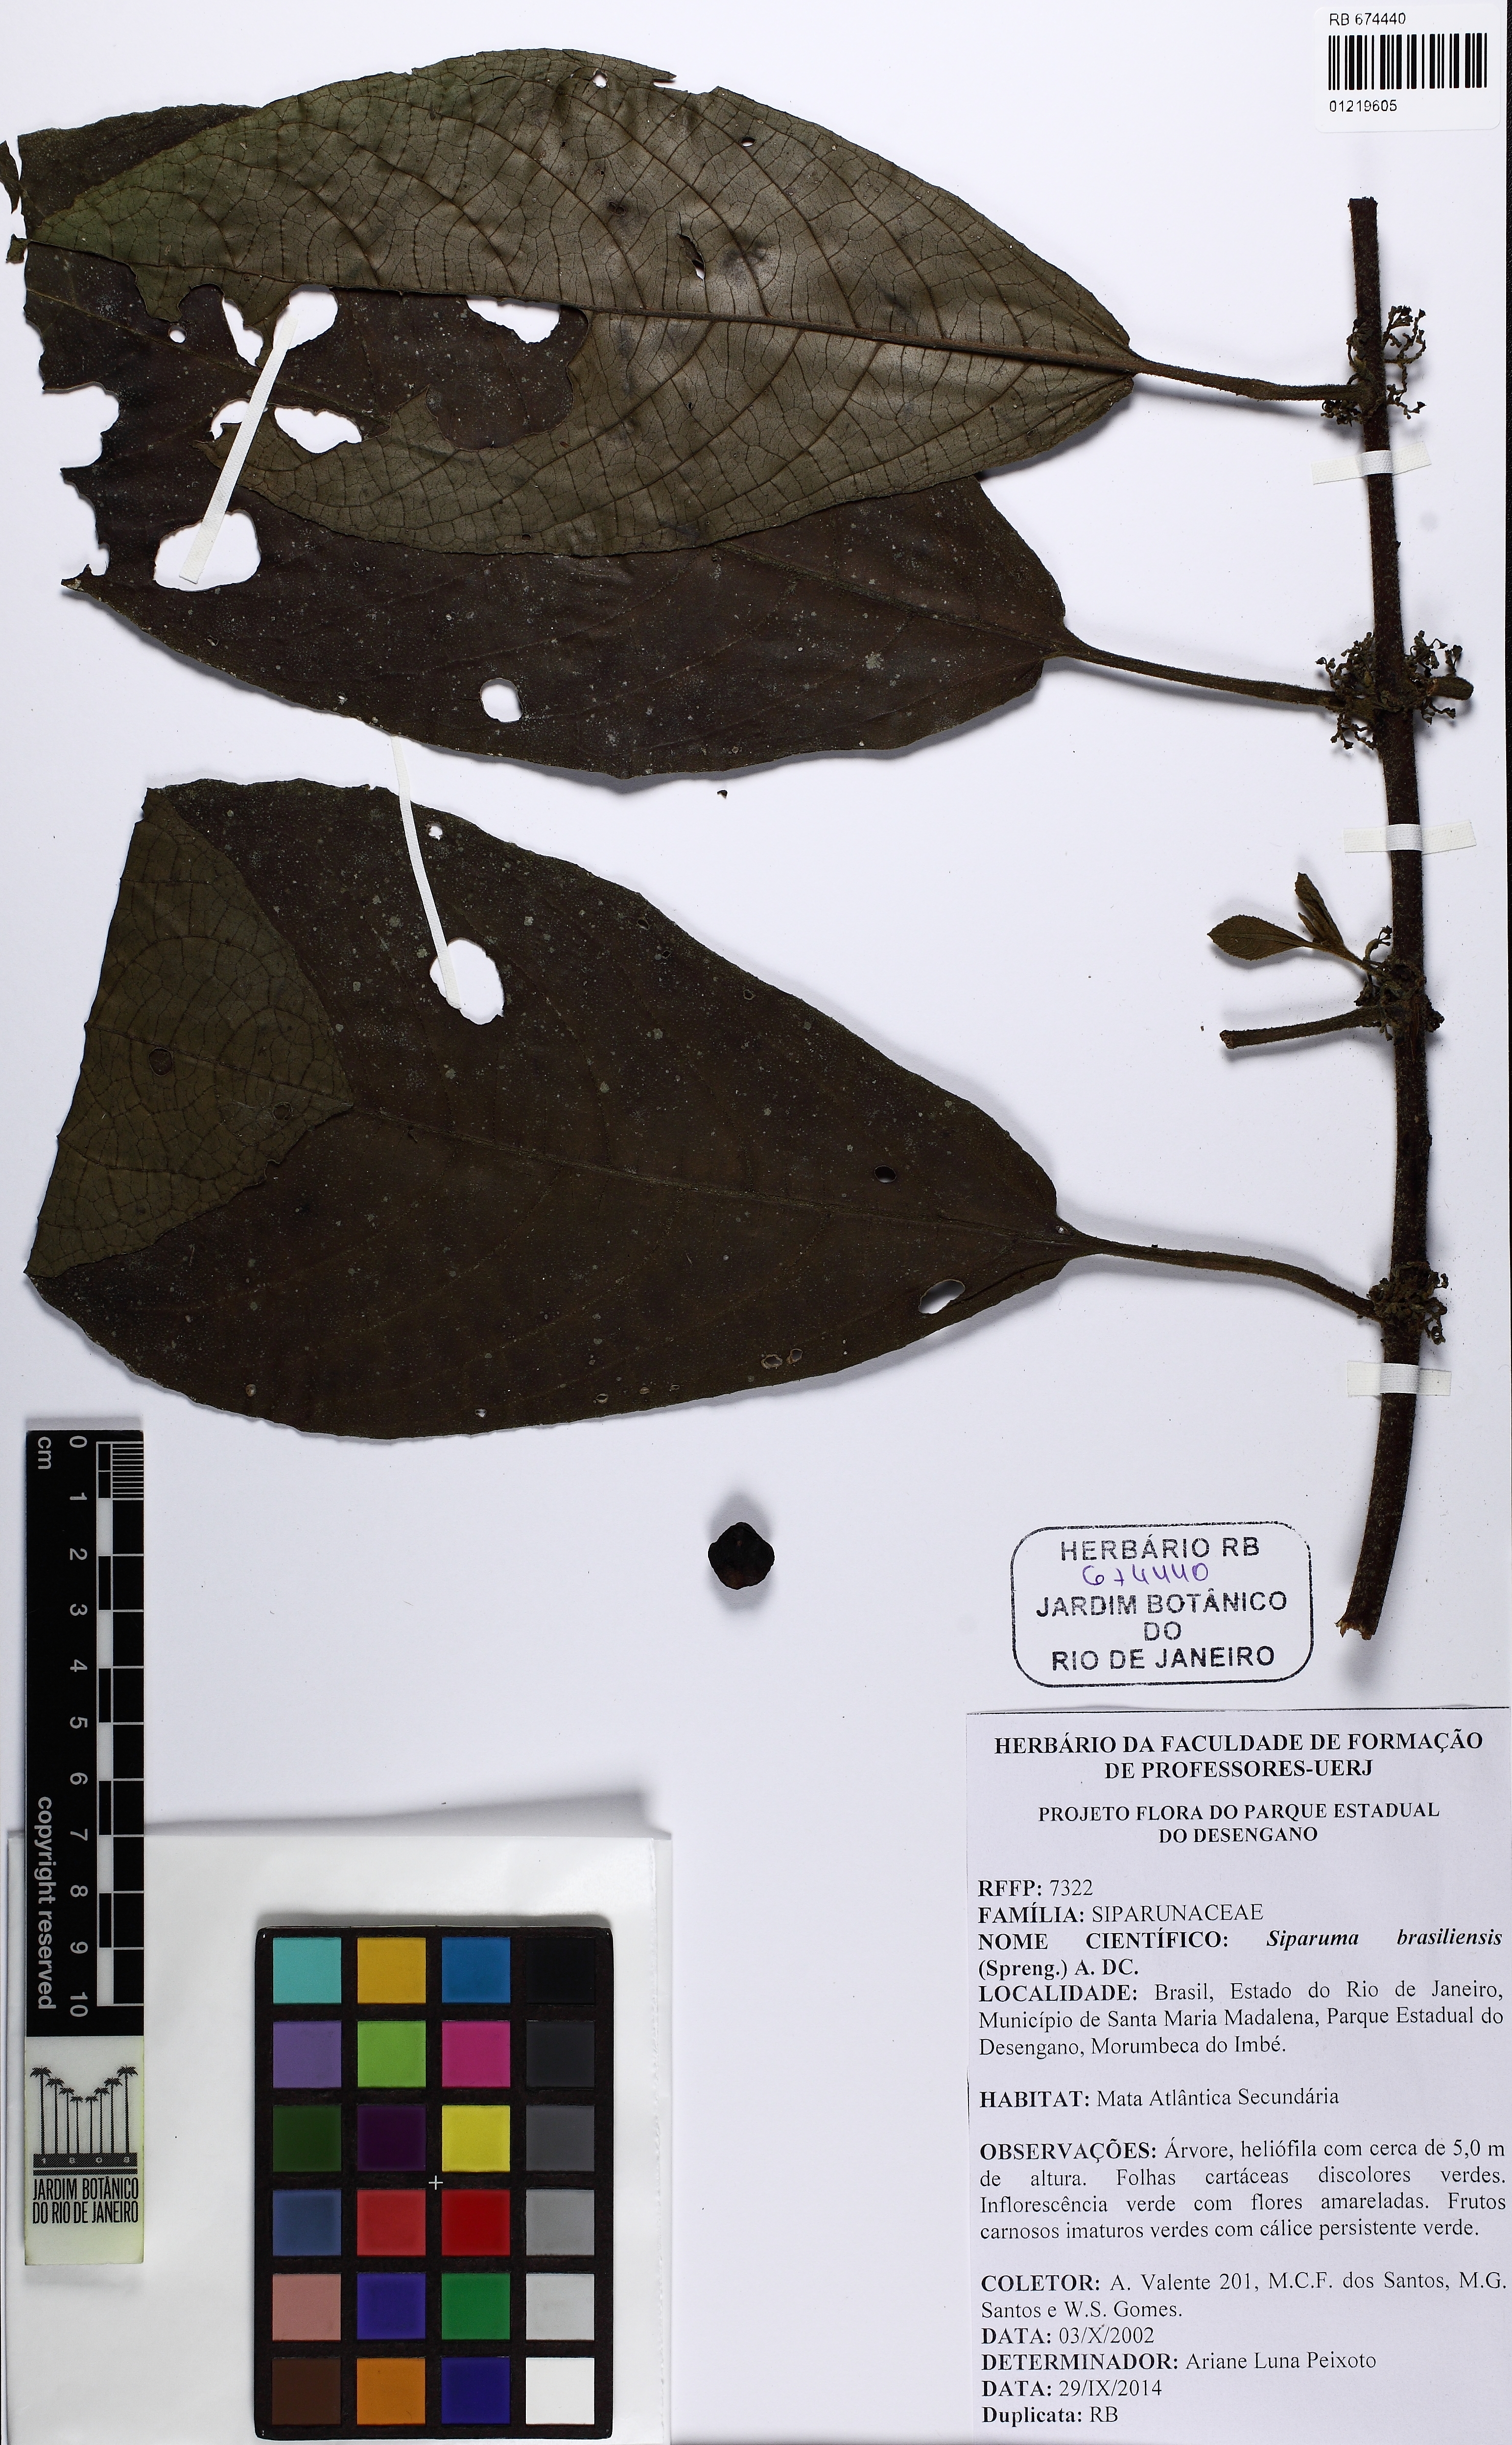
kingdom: Plantae
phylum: Tracheophyta
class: Magnoliopsida
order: Laurales
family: Siparunaceae
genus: Siparuna
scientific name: Siparuna brasiliensis
